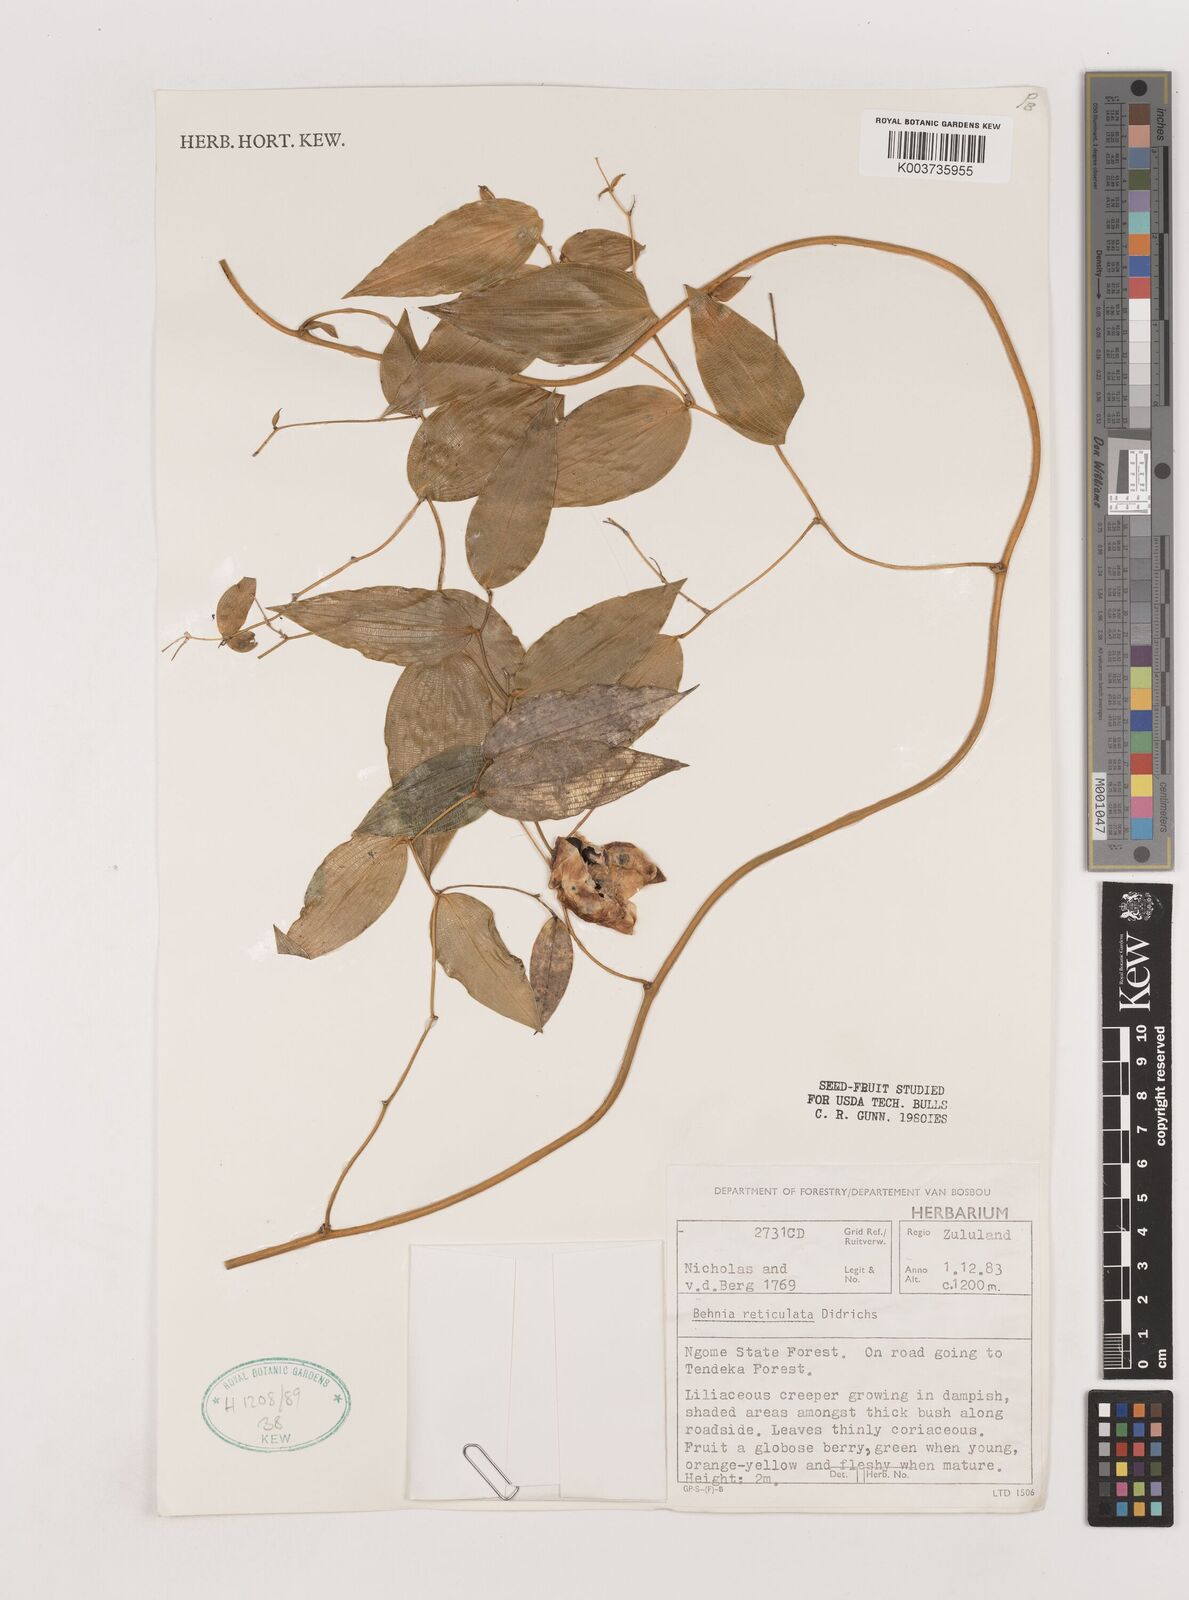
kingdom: Plantae
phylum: Tracheophyta
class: Liliopsida
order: Asparagales
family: Asparagaceae
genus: Behnia
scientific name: Behnia reticulata
